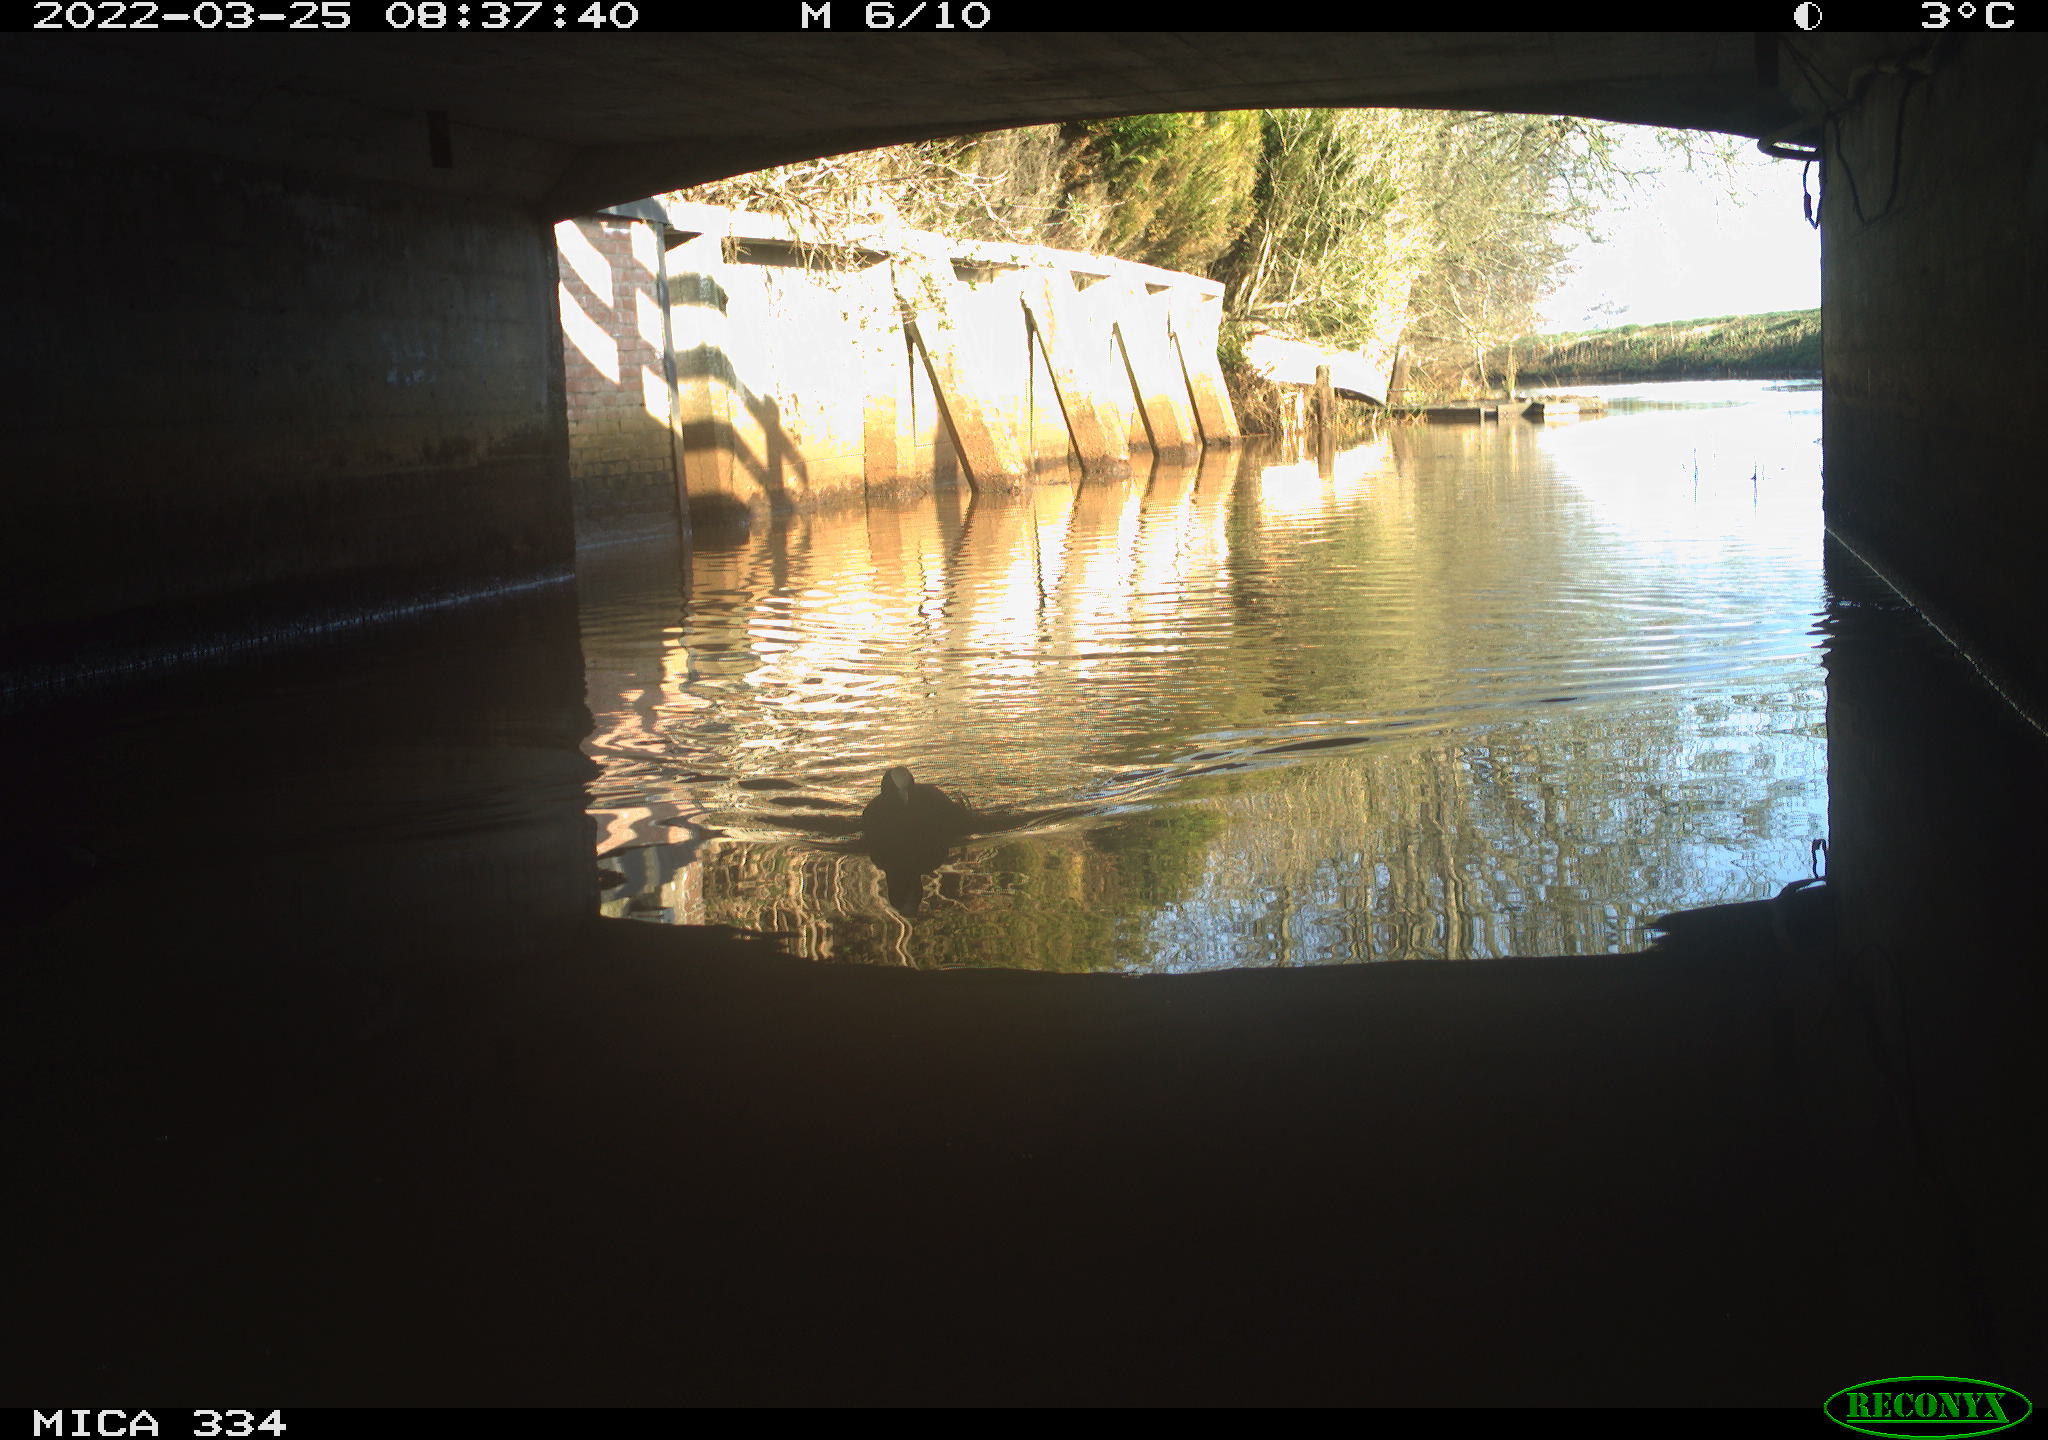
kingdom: Animalia
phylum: Chordata
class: Aves
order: Gruiformes
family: Rallidae
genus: Fulica
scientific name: Fulica atra
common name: Eurasian coot
